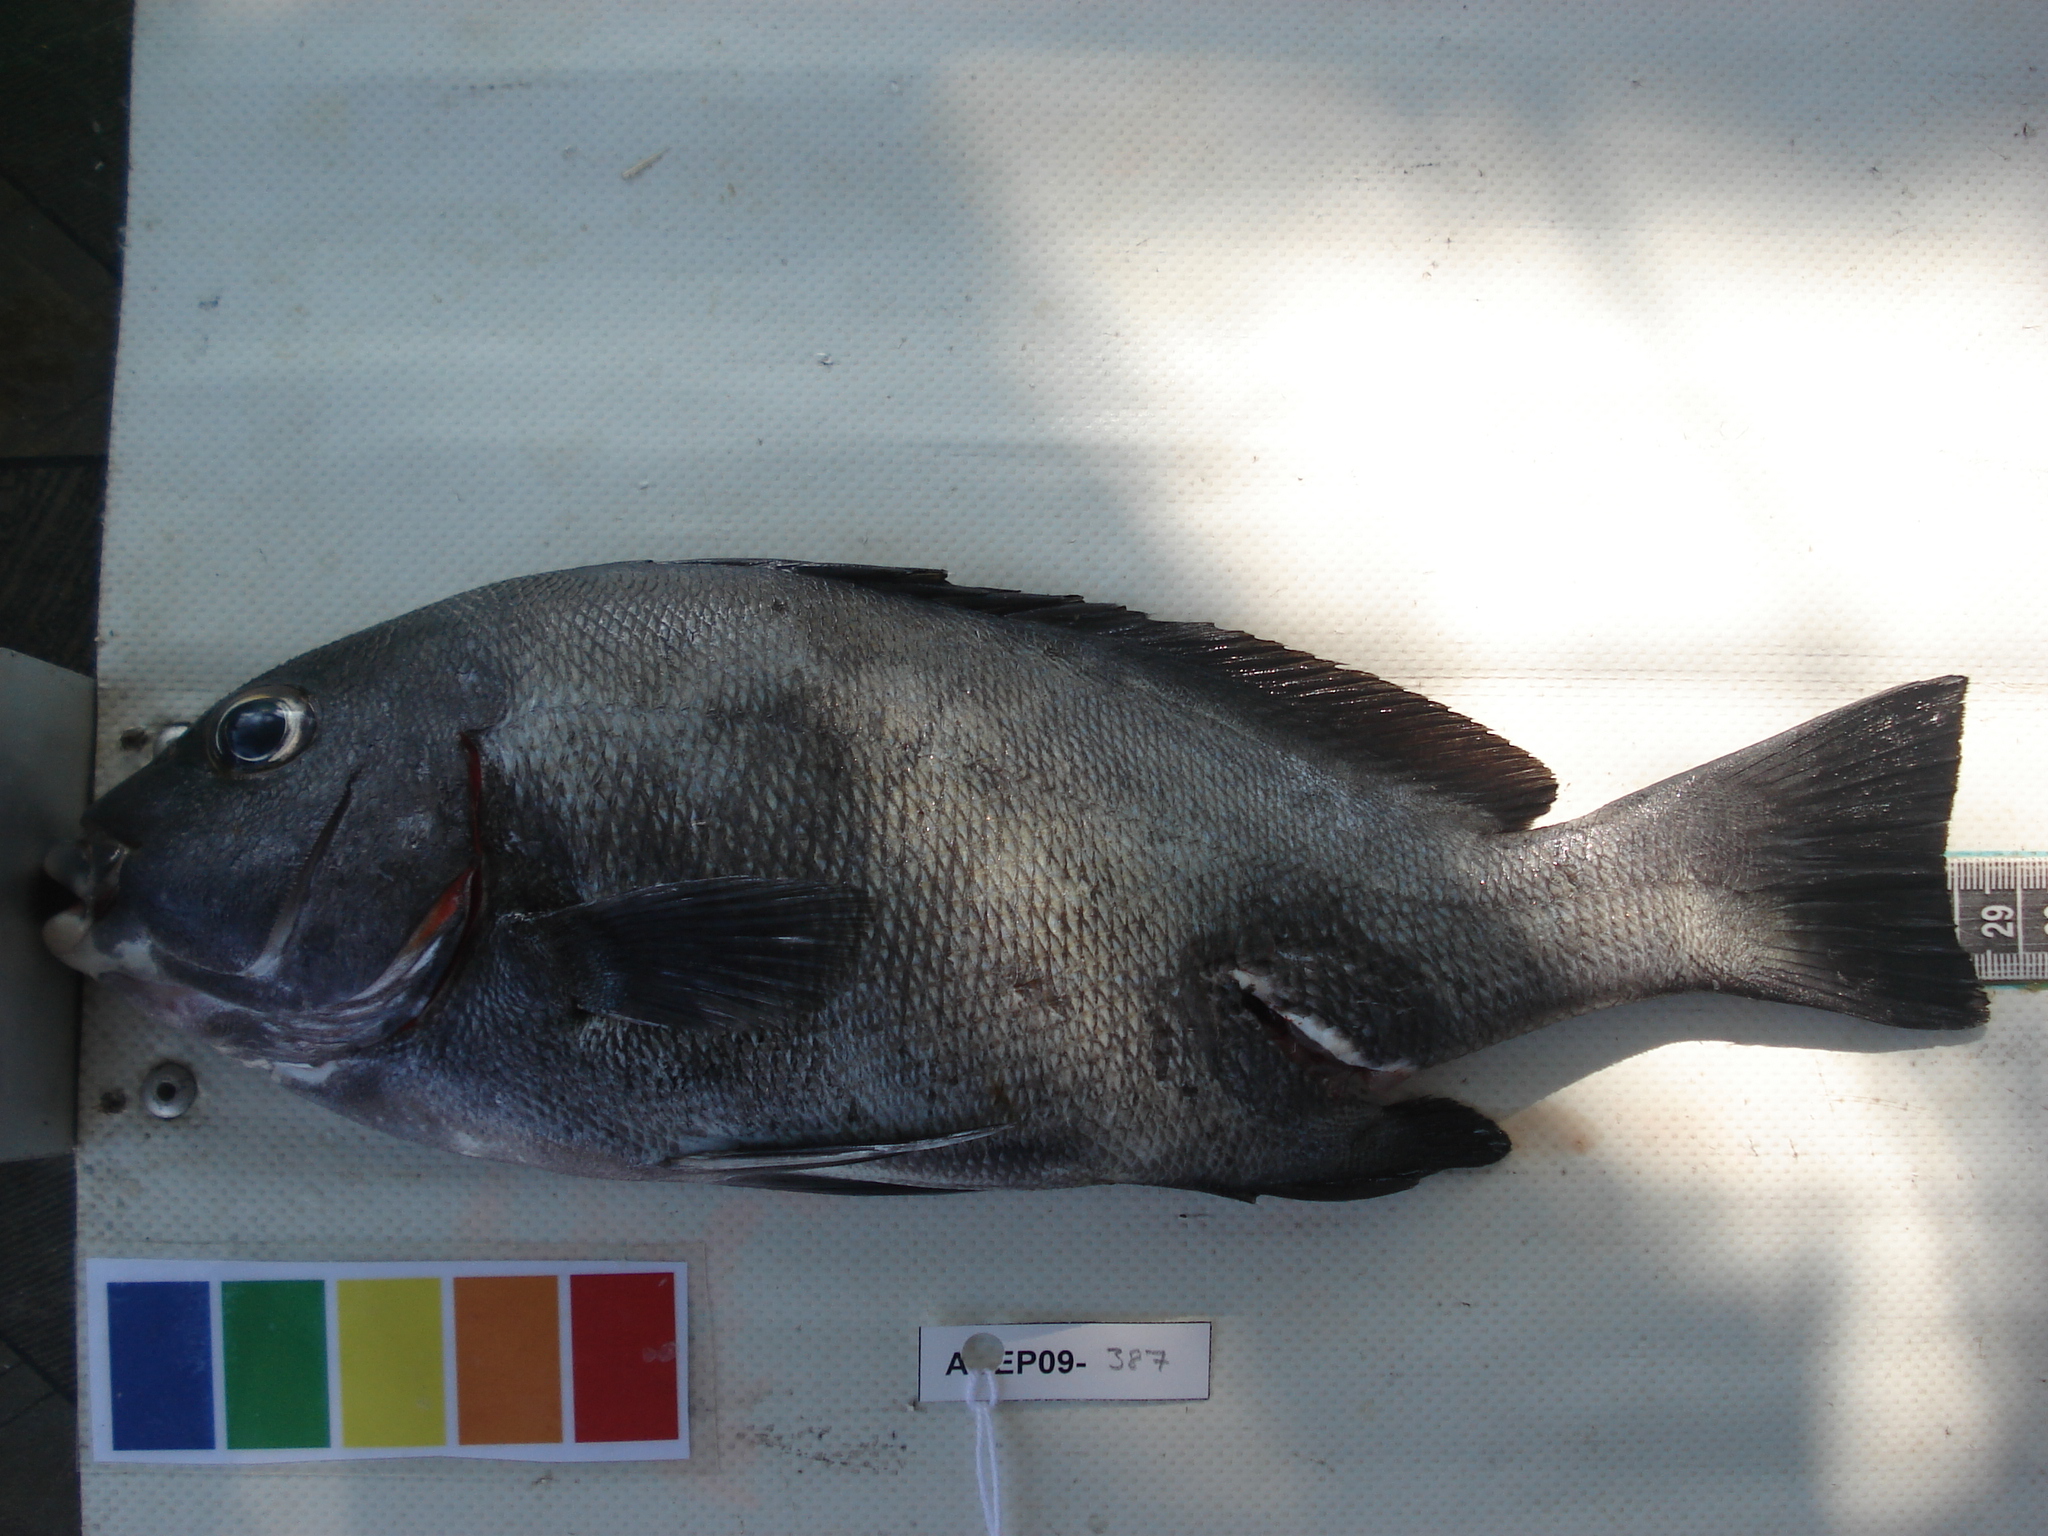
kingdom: Animalia
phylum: Chordata
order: Perciformes
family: Haemulidae
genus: Plectorhinchus
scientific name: Plectorhinchus schotaf
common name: Minstrel sweetlips
